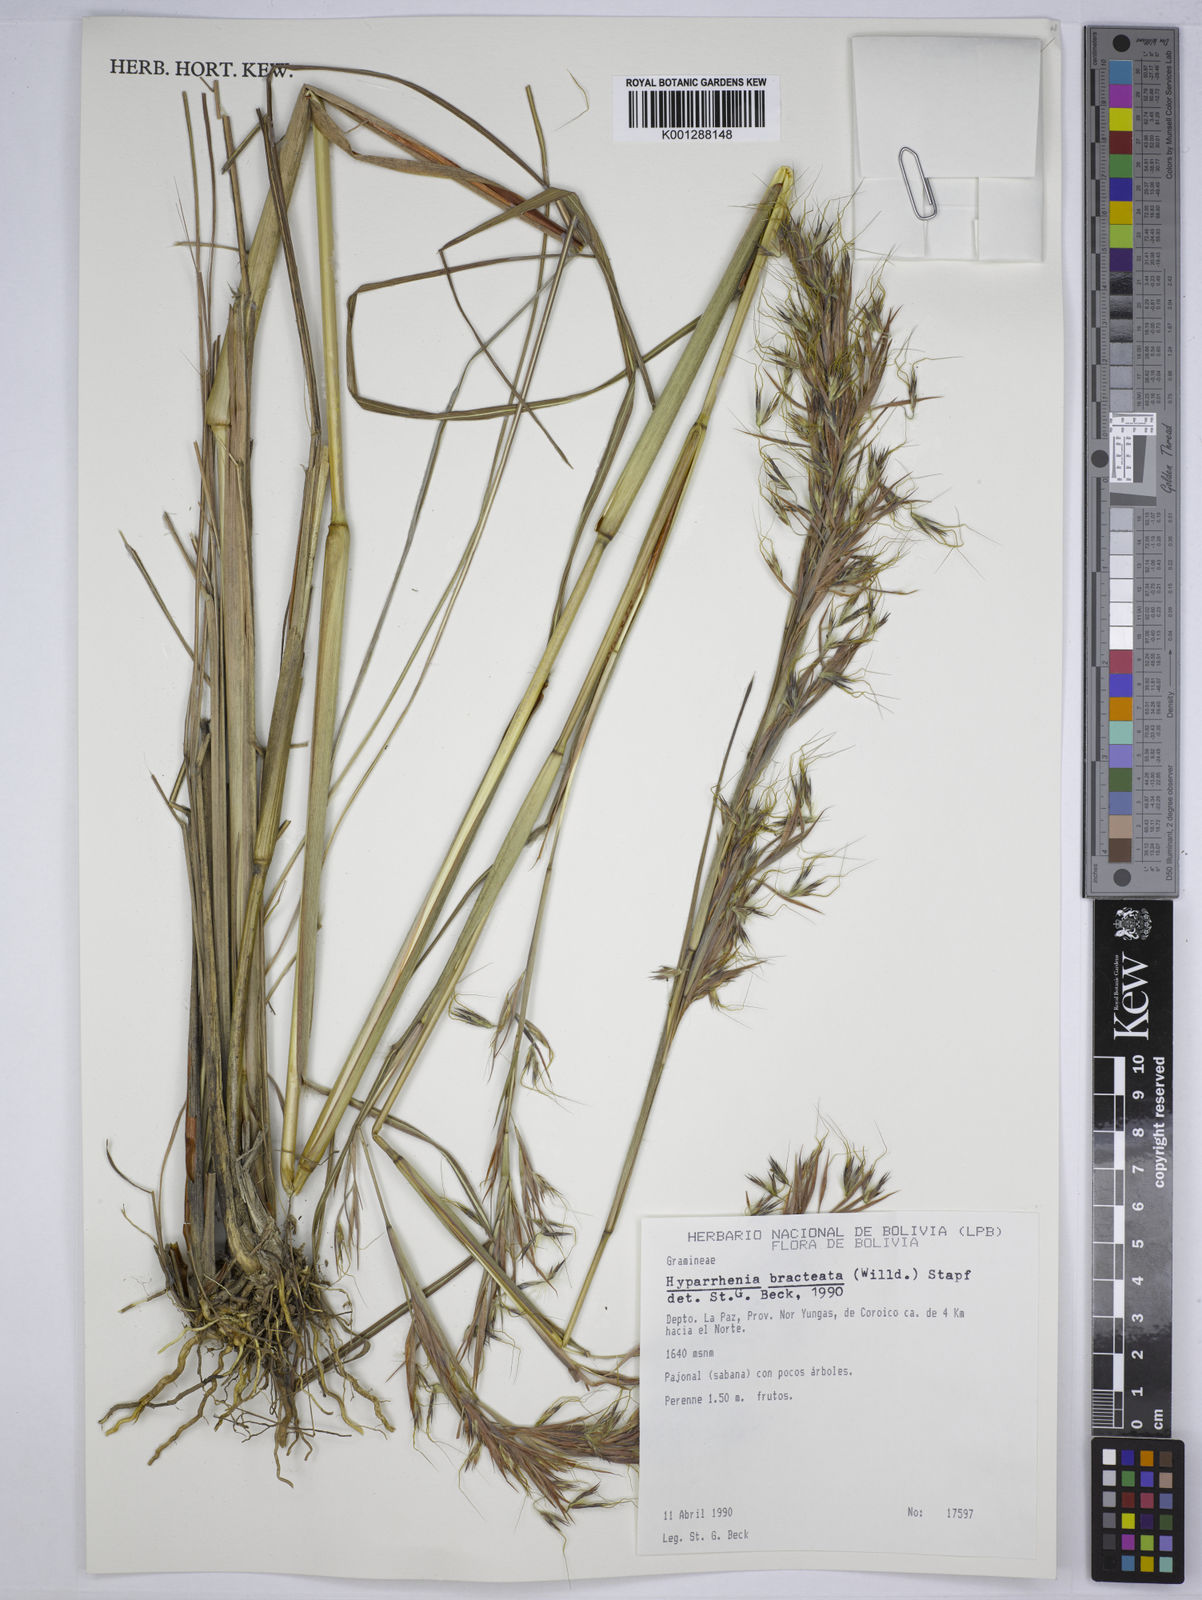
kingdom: Plantae
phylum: Tracheophyta
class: Liliopsida
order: Poales
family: Poaceae
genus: Hyparrhenia
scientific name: Hyparrhenia bracteata
